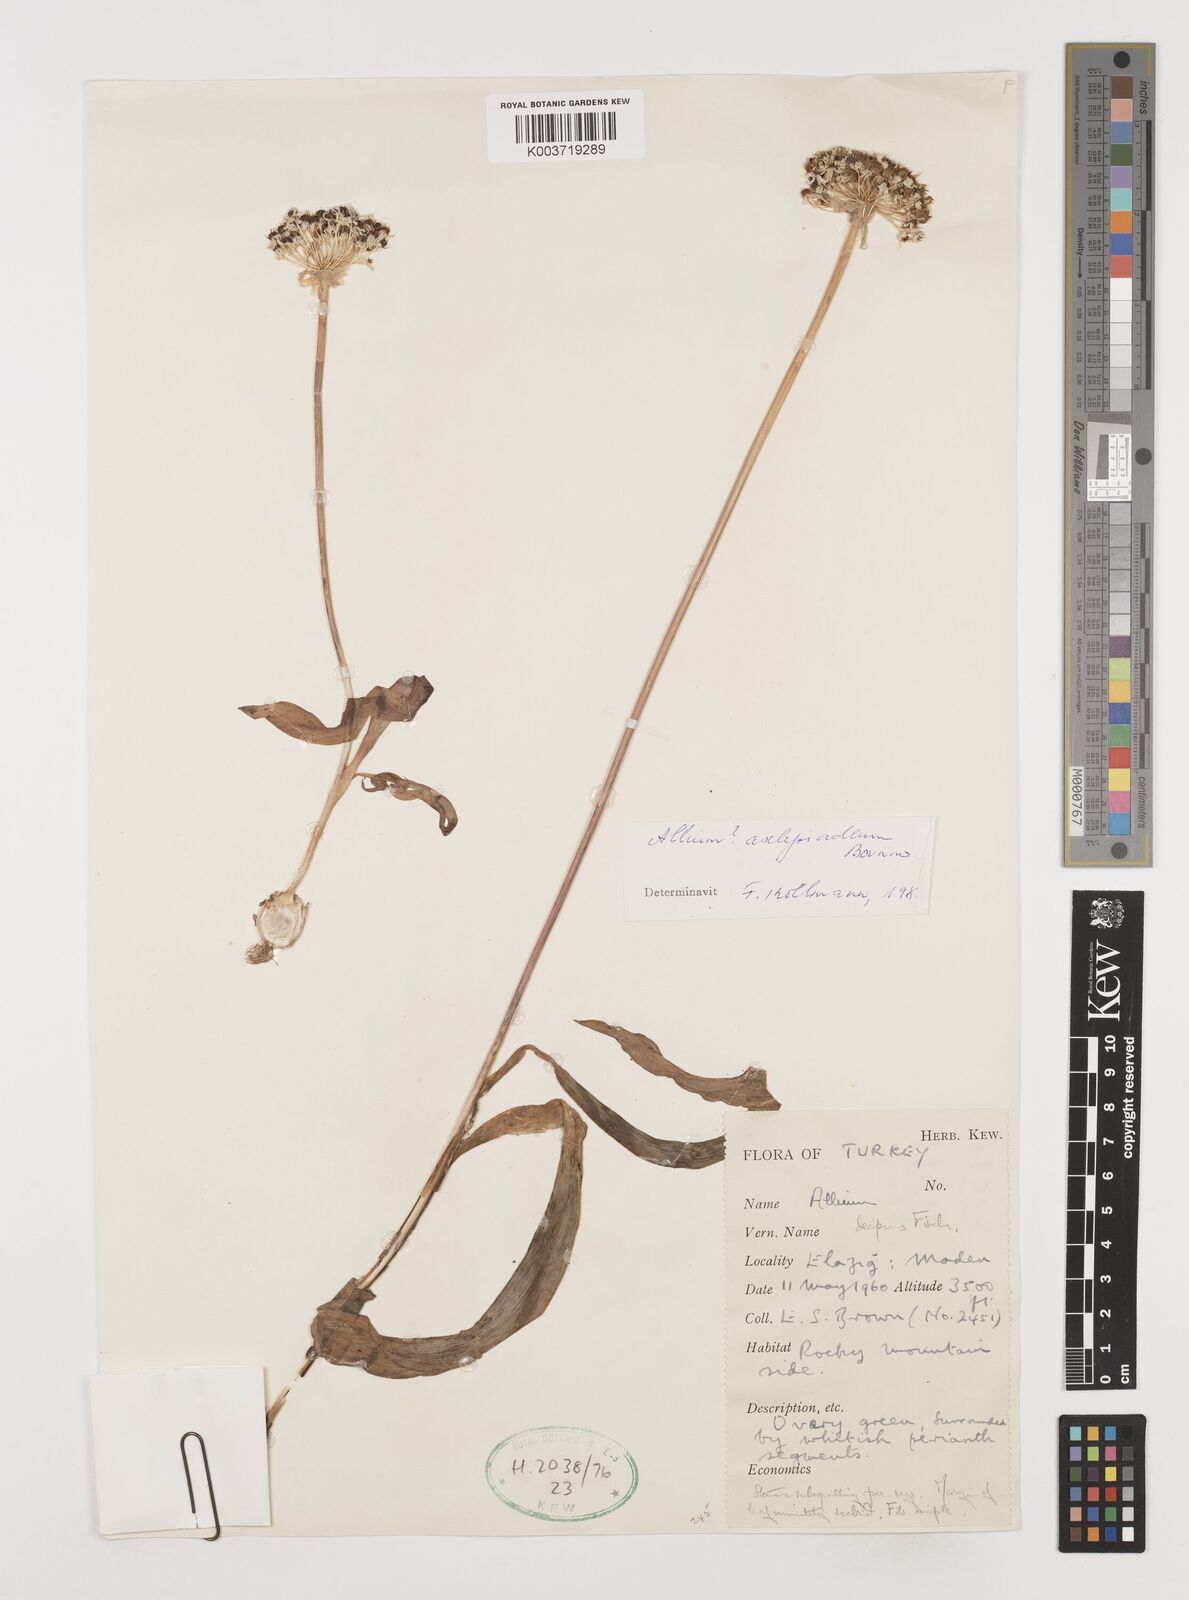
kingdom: Plantae
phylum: Tracheophyta
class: Liliopsida
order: Asparagales
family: Amaryllidaceae
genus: Allium
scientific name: Allium asclepiadeum
